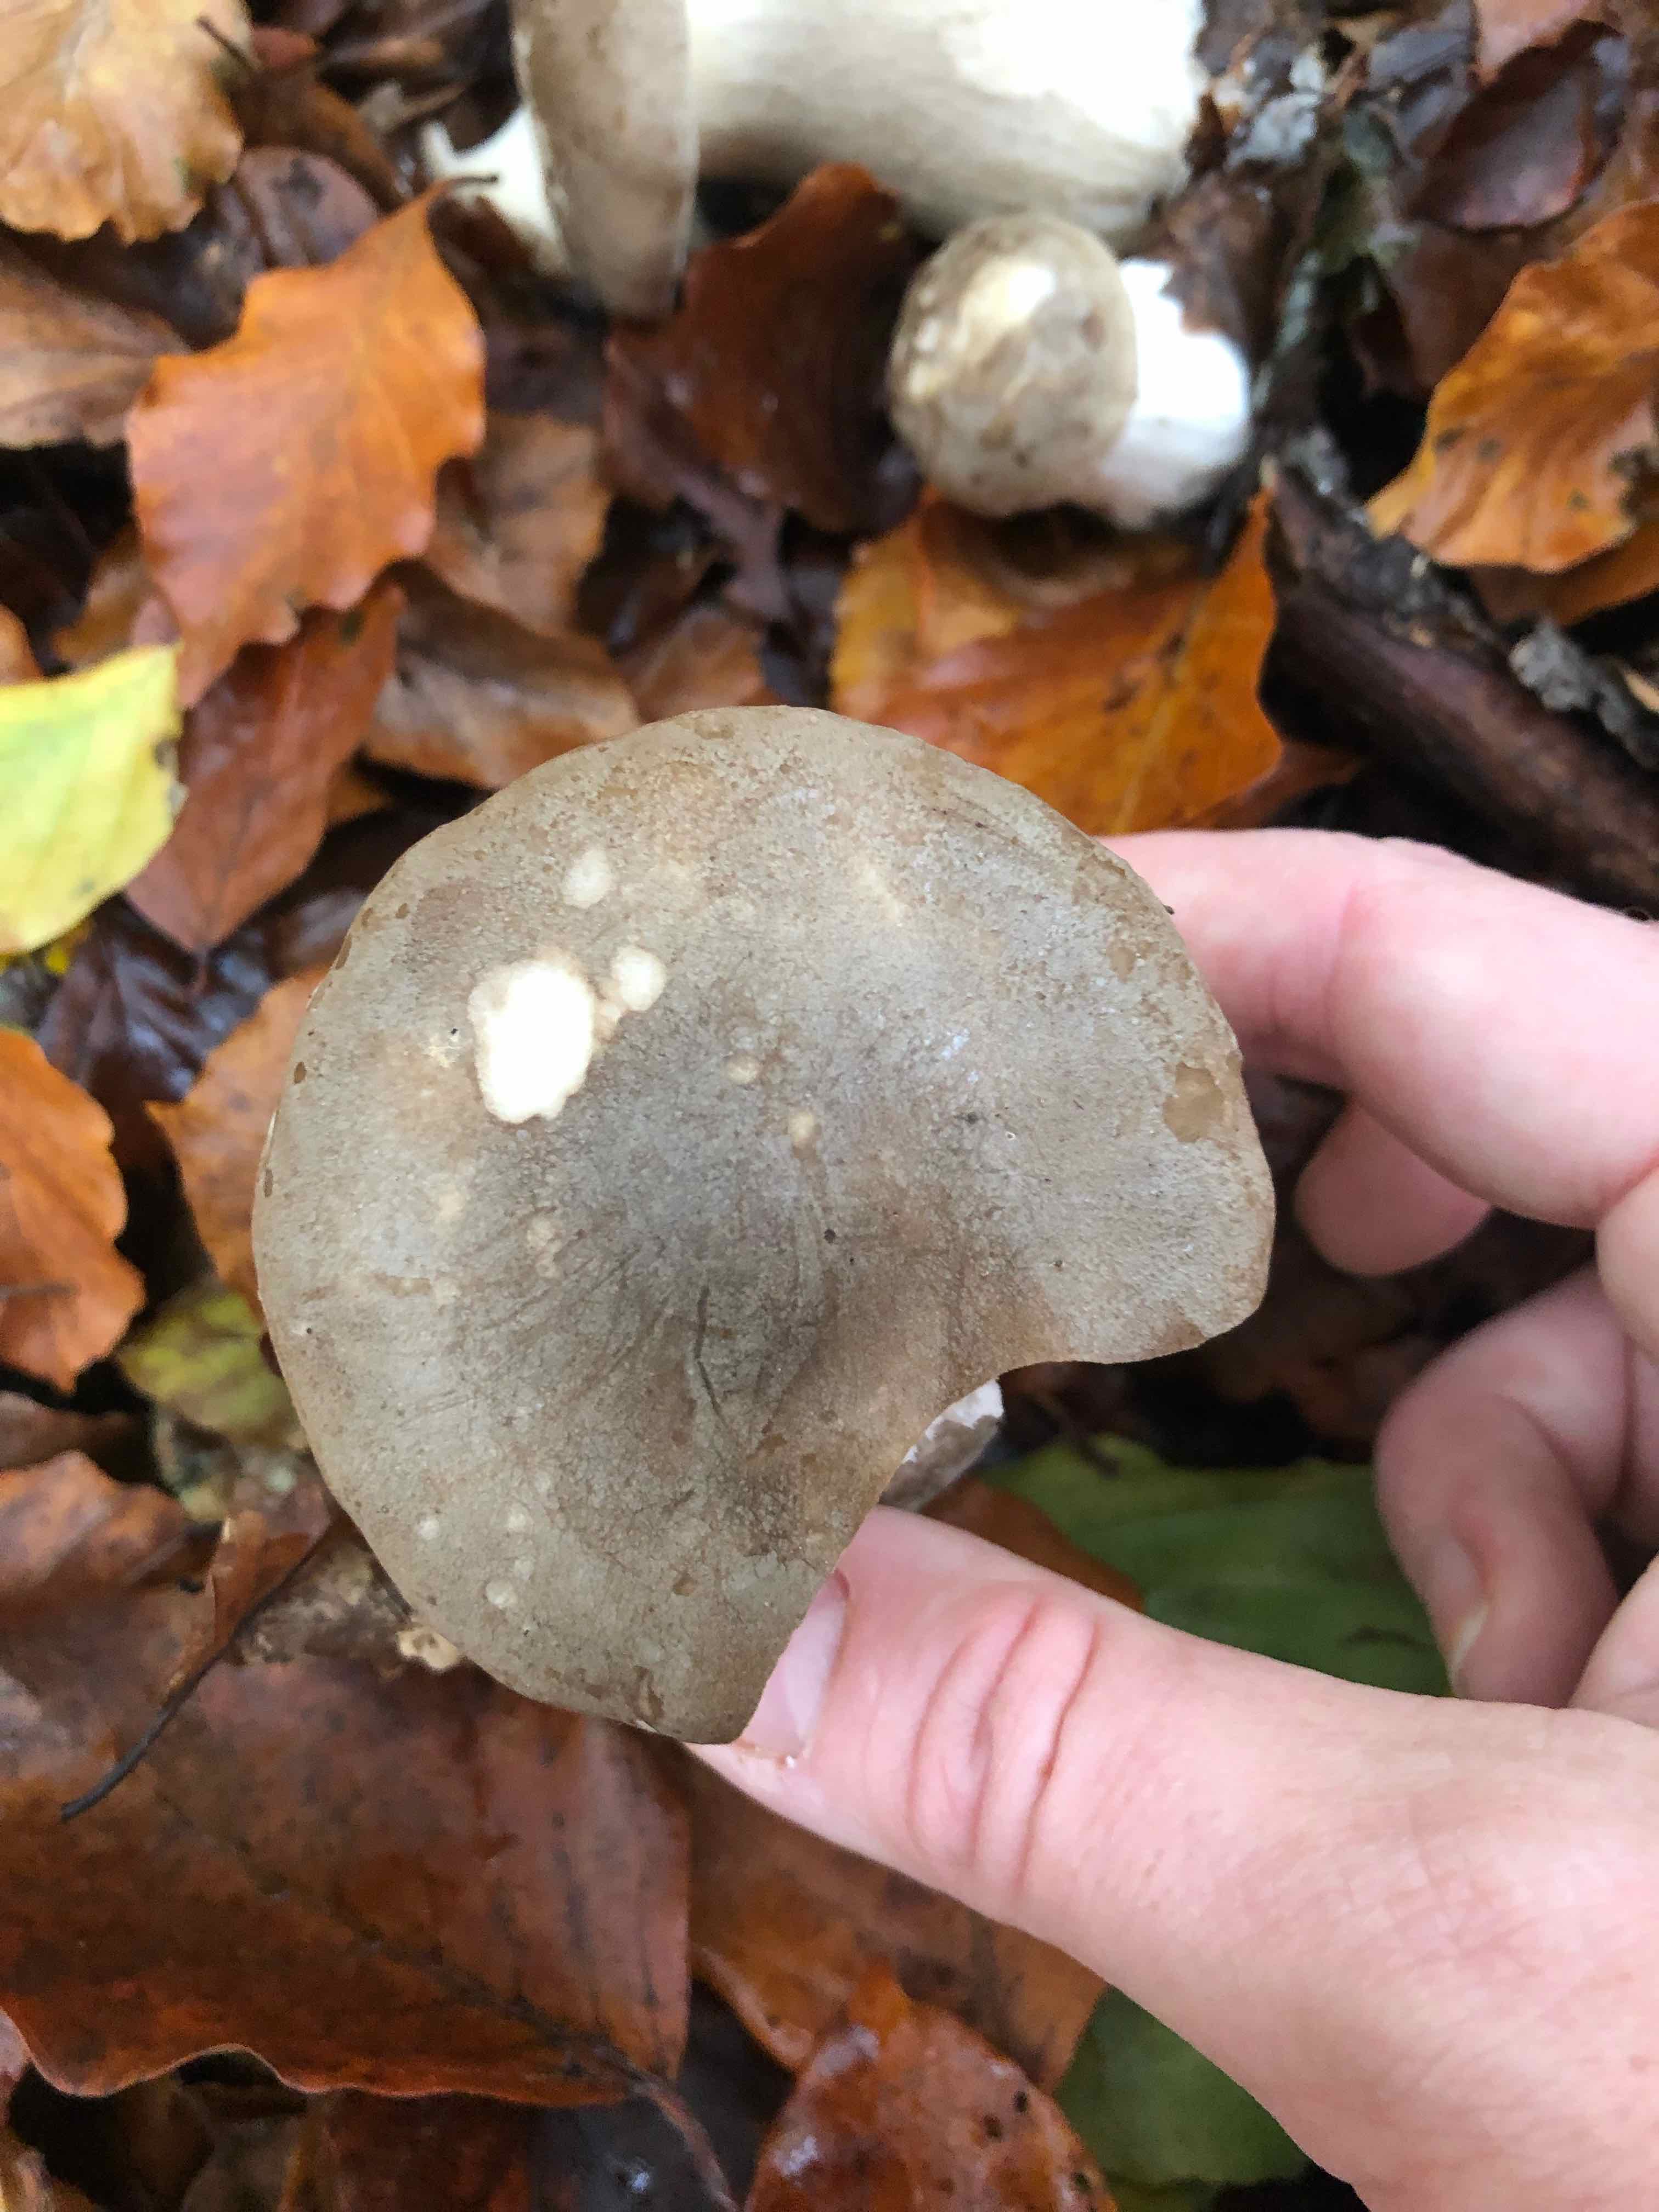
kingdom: Fungi
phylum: Basidiomycota
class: Agaricomycetes
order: Agaricales
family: Tricholomataceae
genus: Clitocybe
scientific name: Clitocybe nebularis
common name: tåge-tragthat
